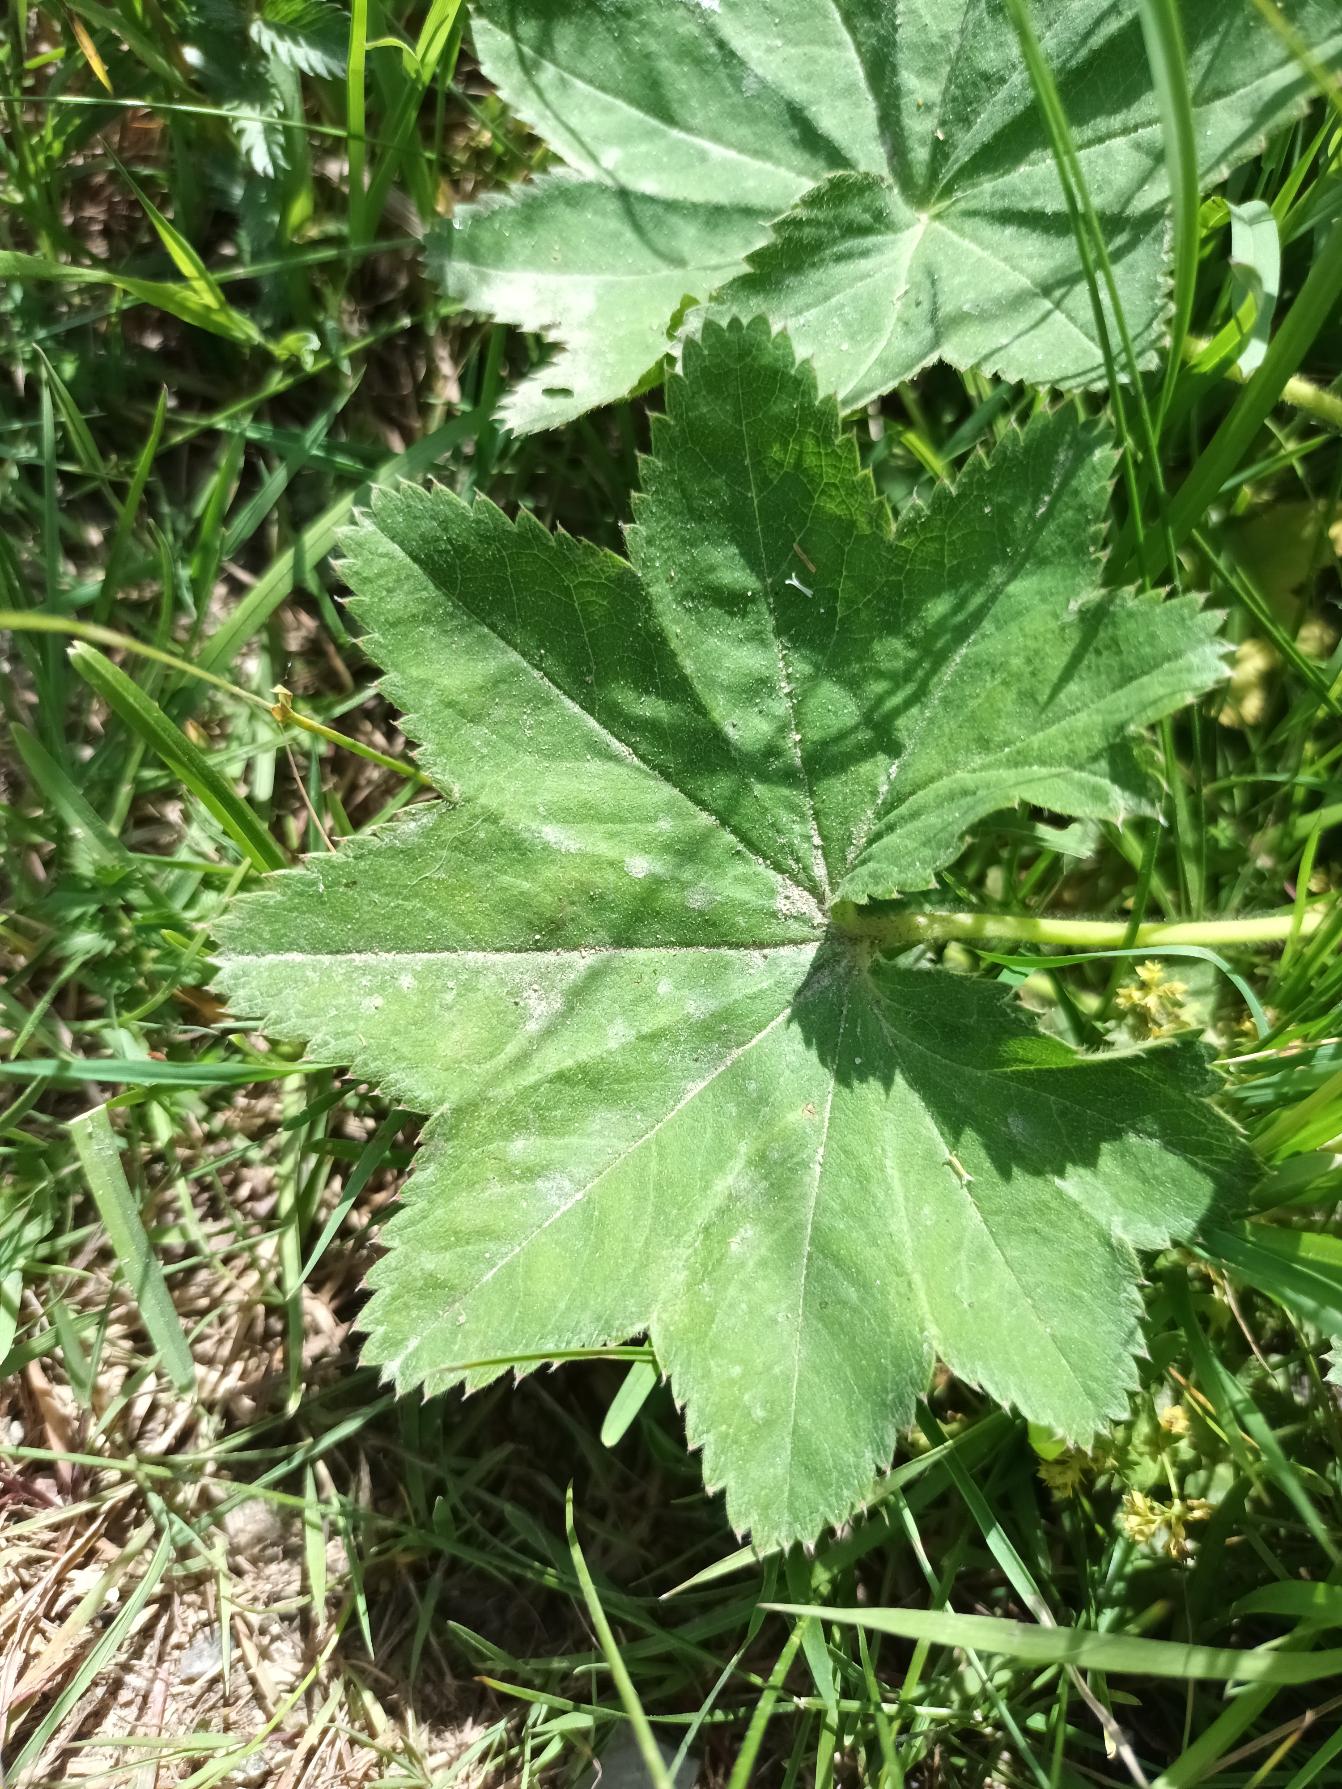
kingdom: Plantae
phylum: Tracheophyta
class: Magnoliopsida
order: Rosales
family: Rosaceae
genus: Alchemilla
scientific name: Alchemilla vulgaris
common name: Spidslappet løvefod
